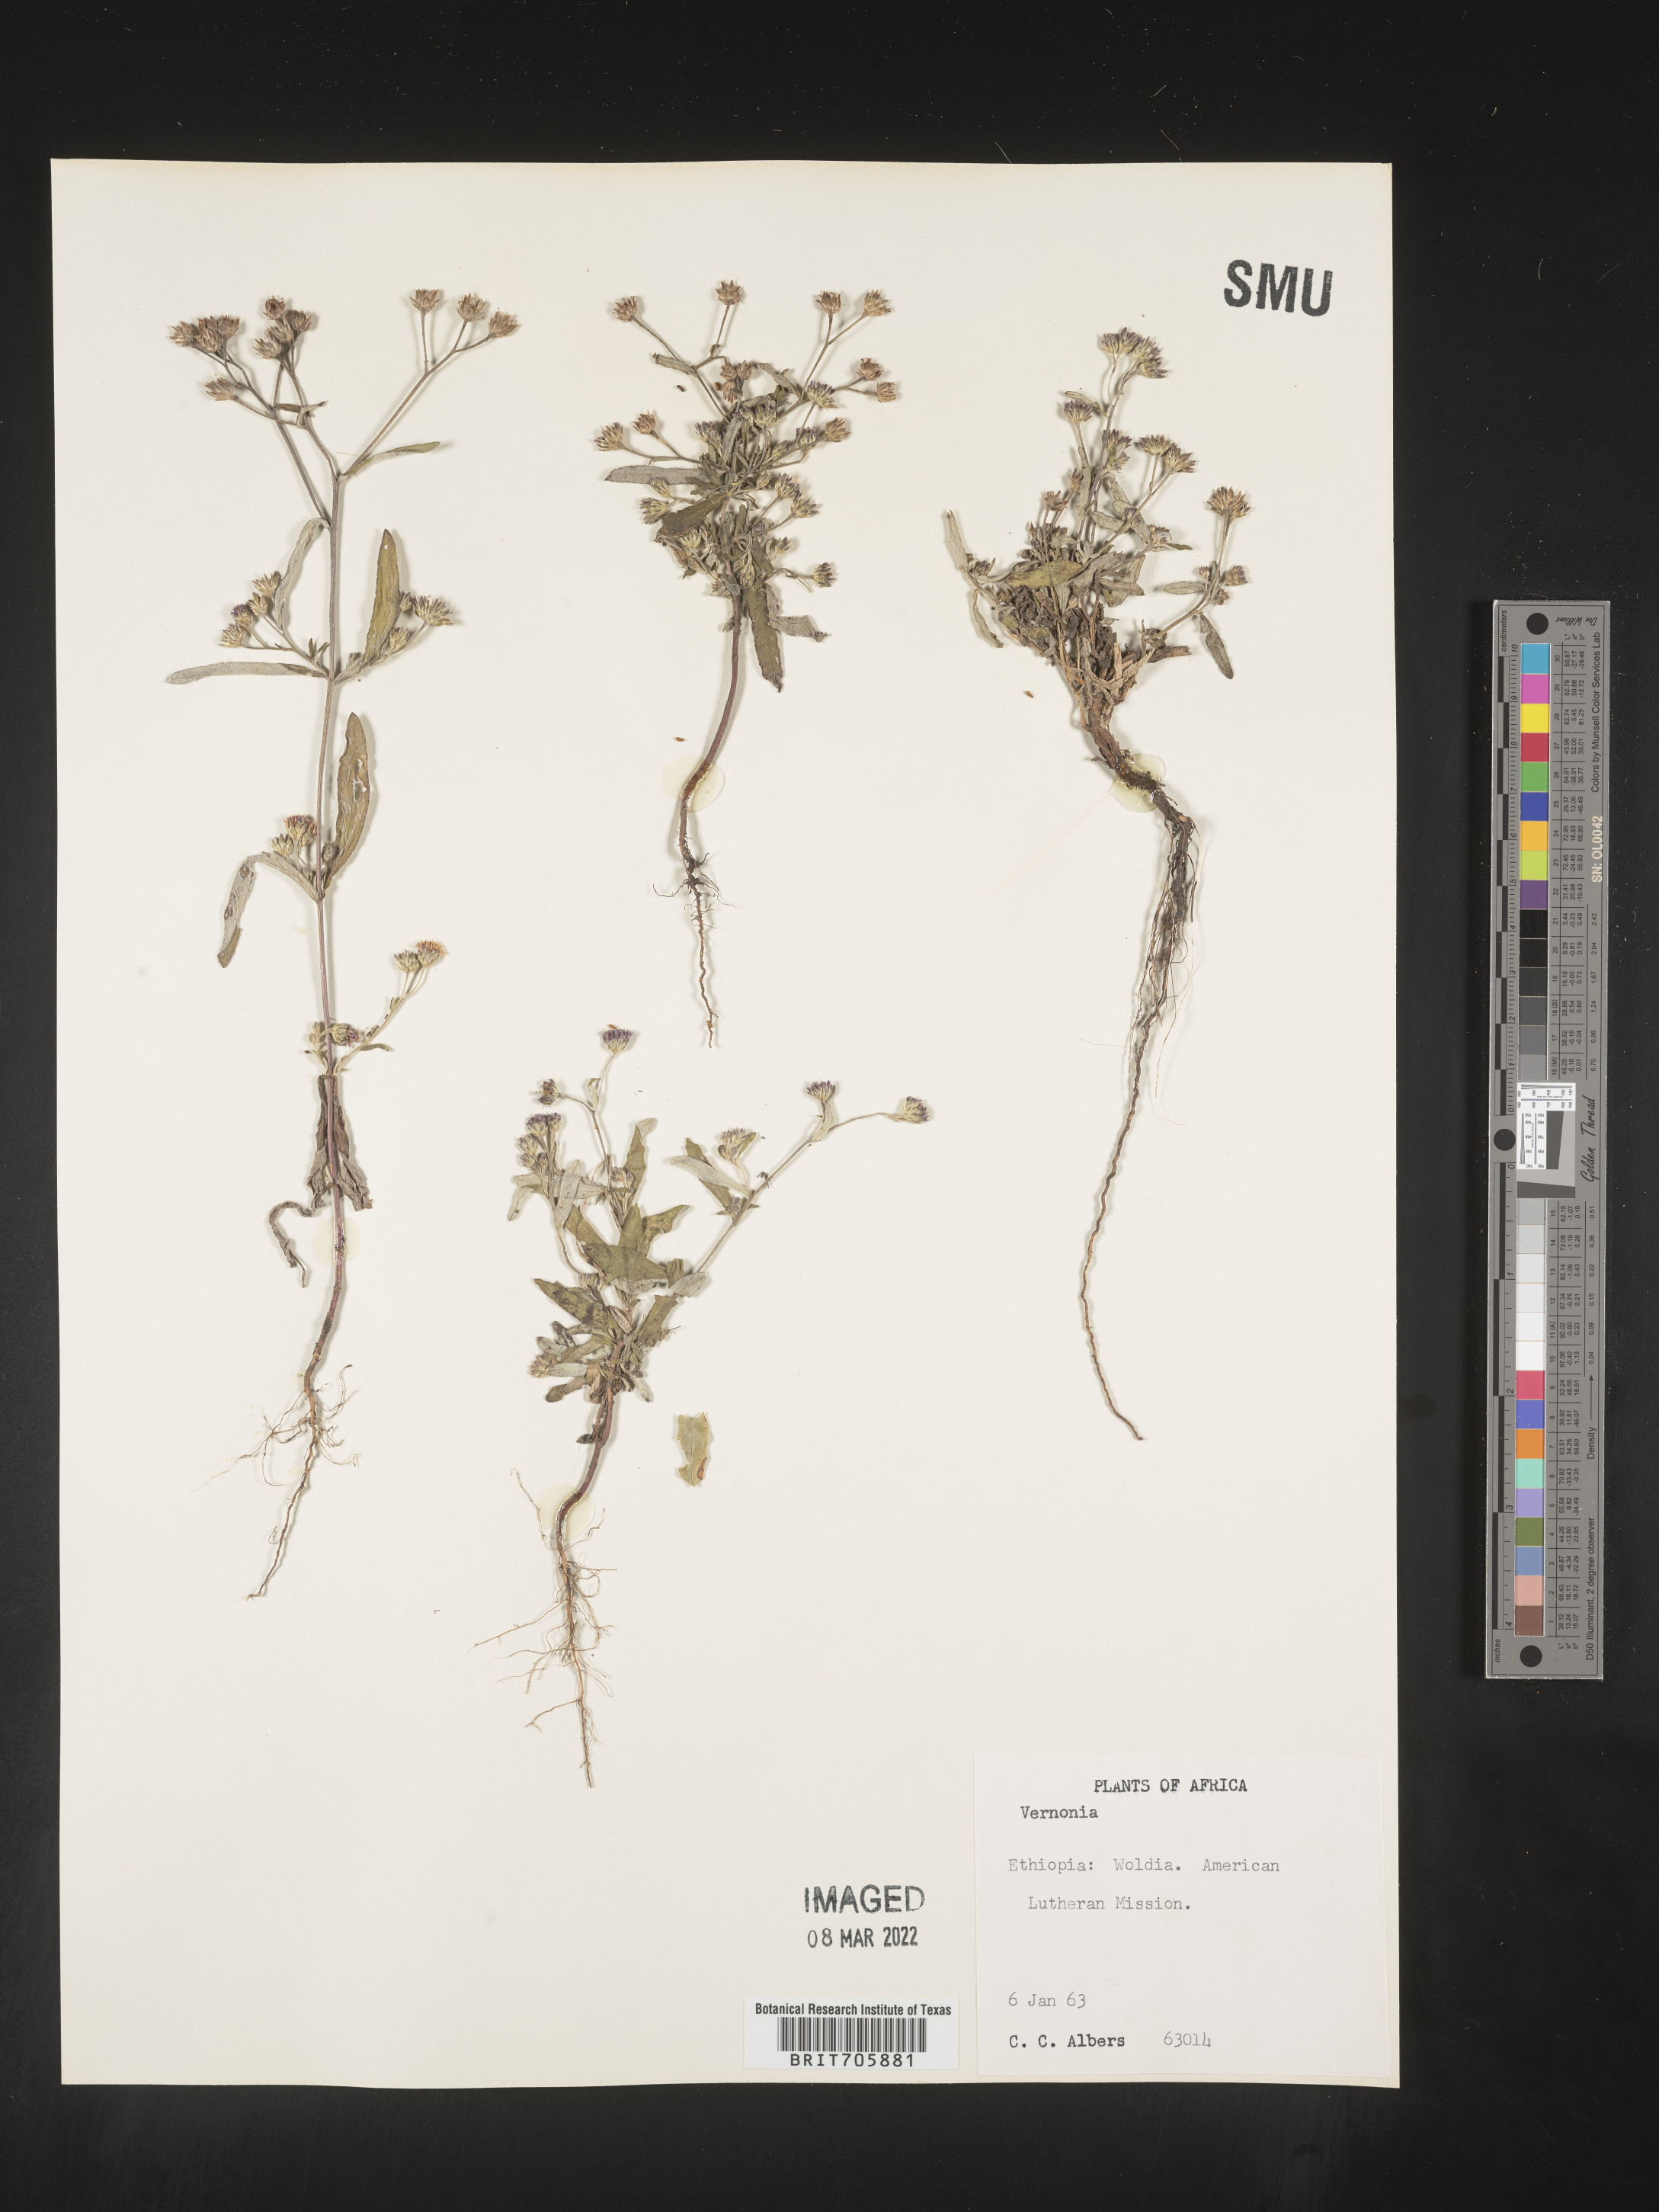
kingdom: Plantae
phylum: Tracheophyta
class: Magnoliopsida
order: Asterales
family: Asteraceae
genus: Vernonia
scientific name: Vernonia
